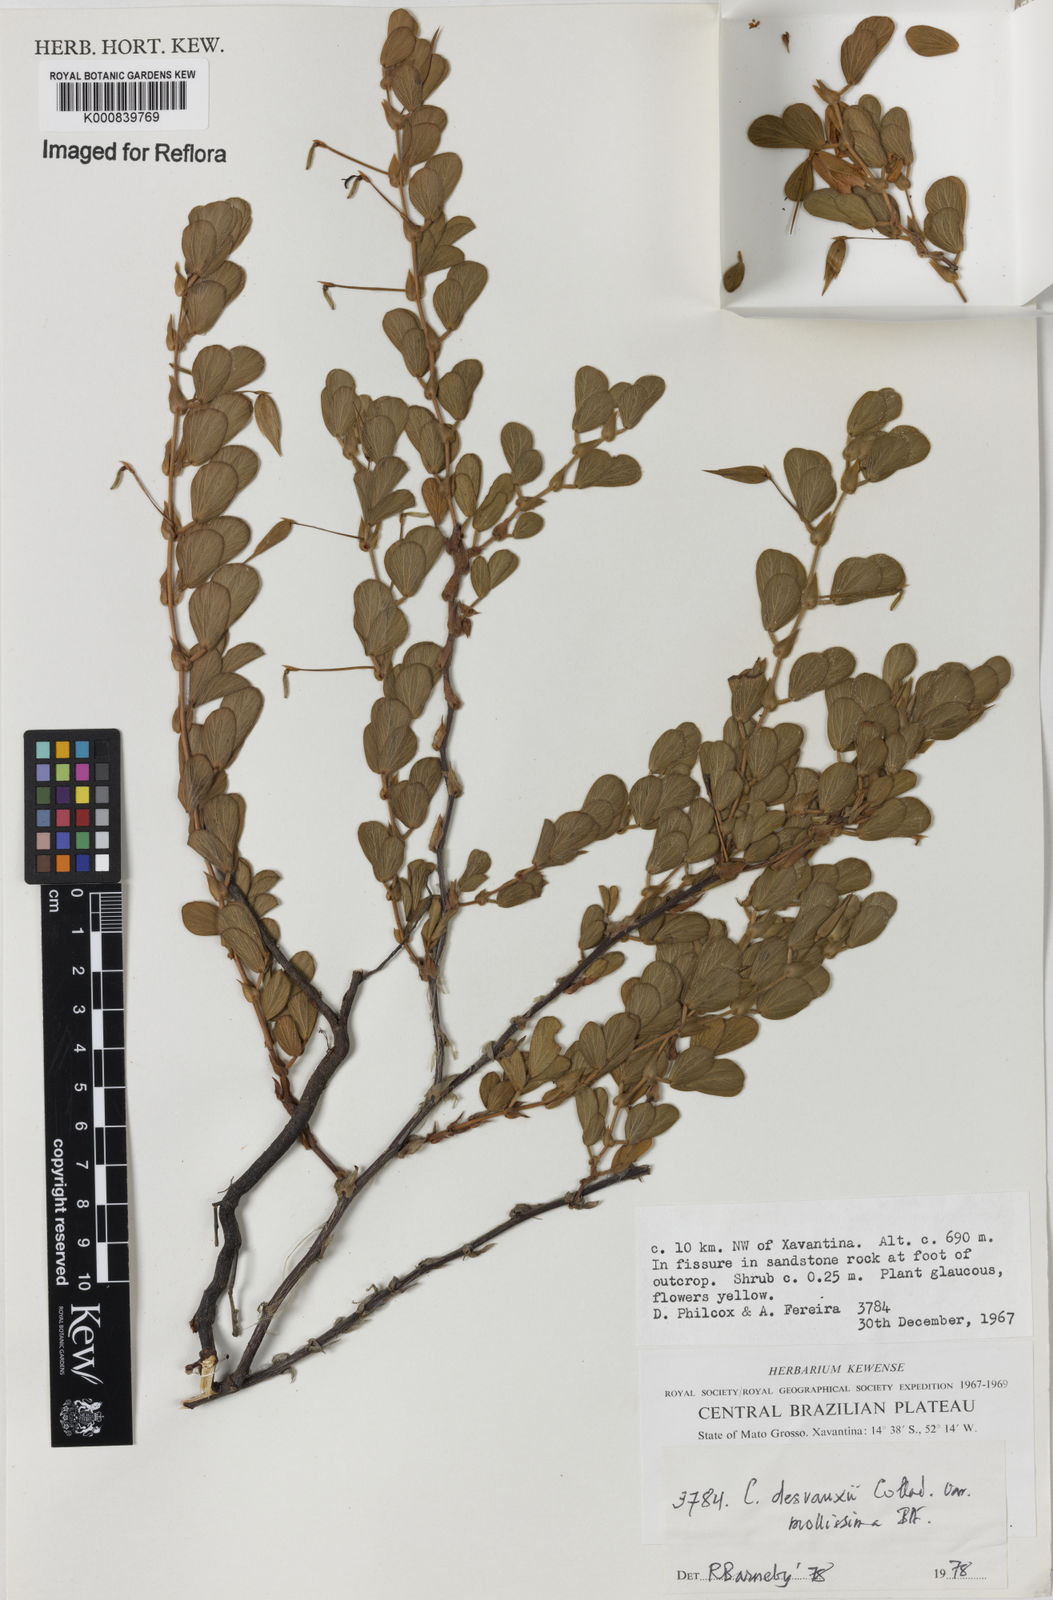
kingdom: Plantae
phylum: Tracheophyta
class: Magnoliopsida
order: Fabales
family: Fabaceae
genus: Chamaecrista
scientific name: Chamaecrista desvauxii
